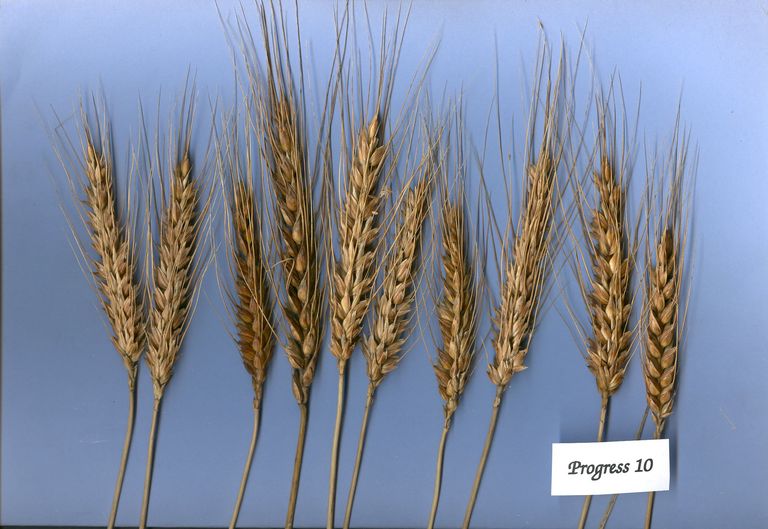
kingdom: Plantae
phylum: Tracheophyta
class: Liliopsida
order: Poales
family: Poaceae
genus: Triticum
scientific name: Triticum aestivum
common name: Common wheat
